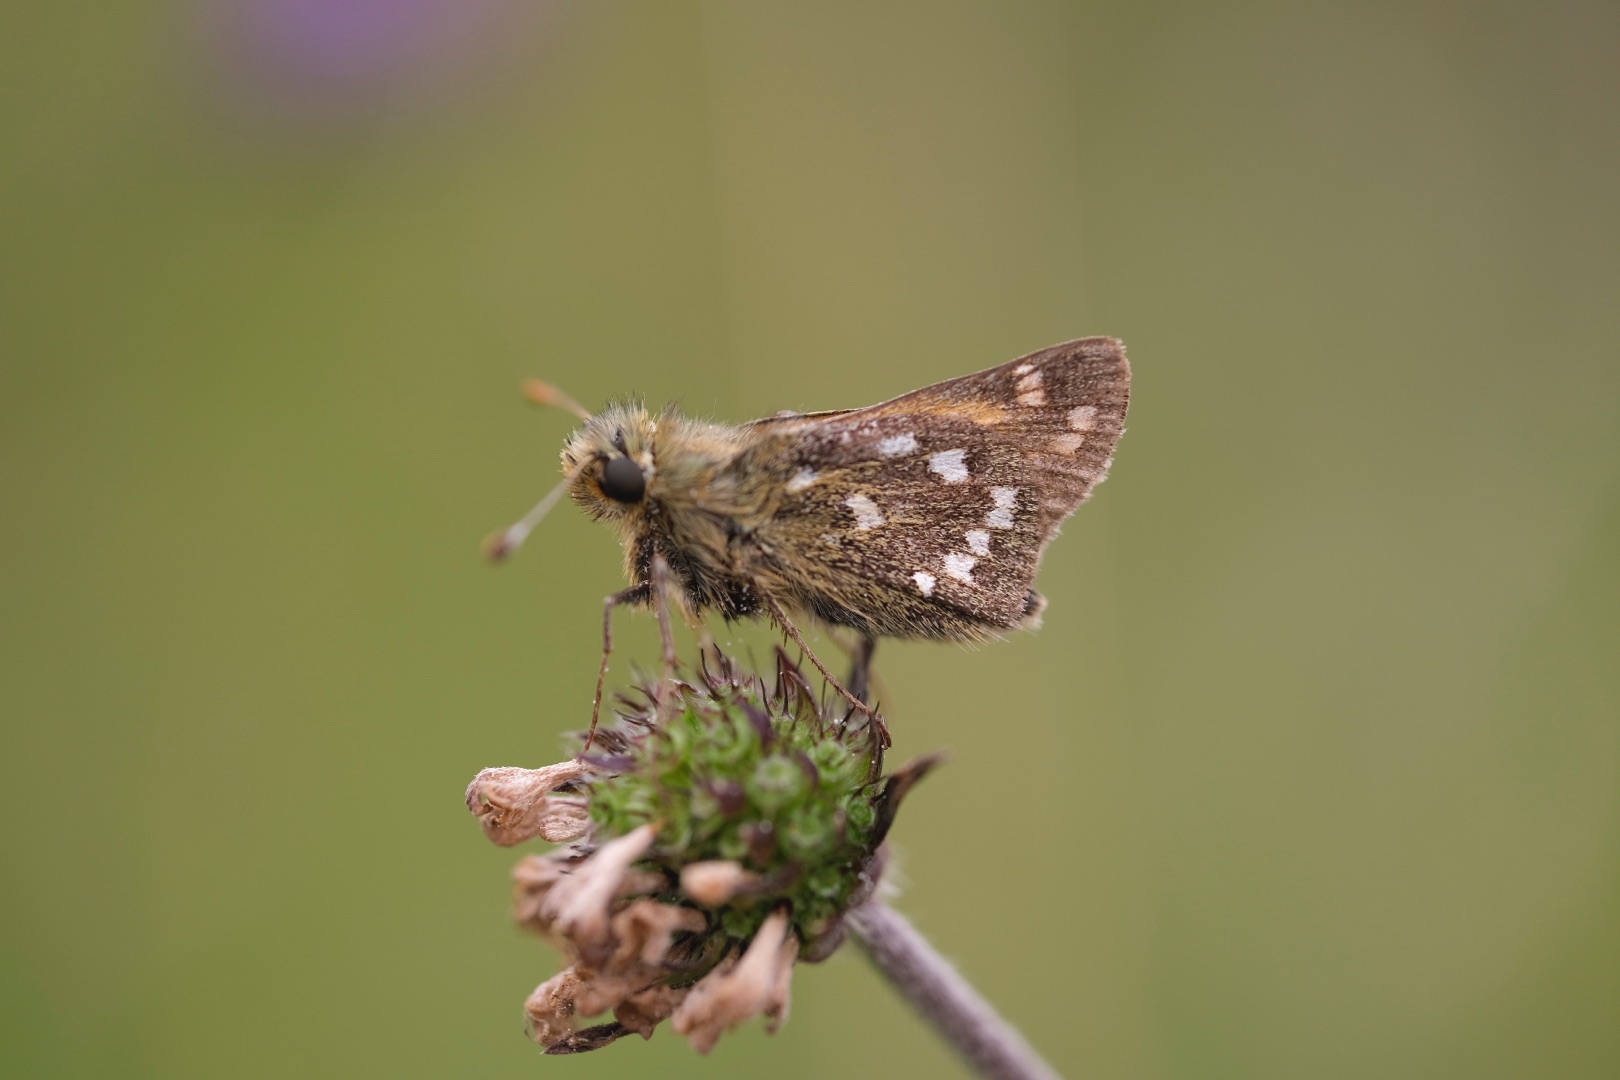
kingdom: Animalia
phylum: Arthropoda
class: Insecta
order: Lepidoptera
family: Hesperiidae
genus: Hesperia
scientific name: Hesperia comma
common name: Kommabredpande
